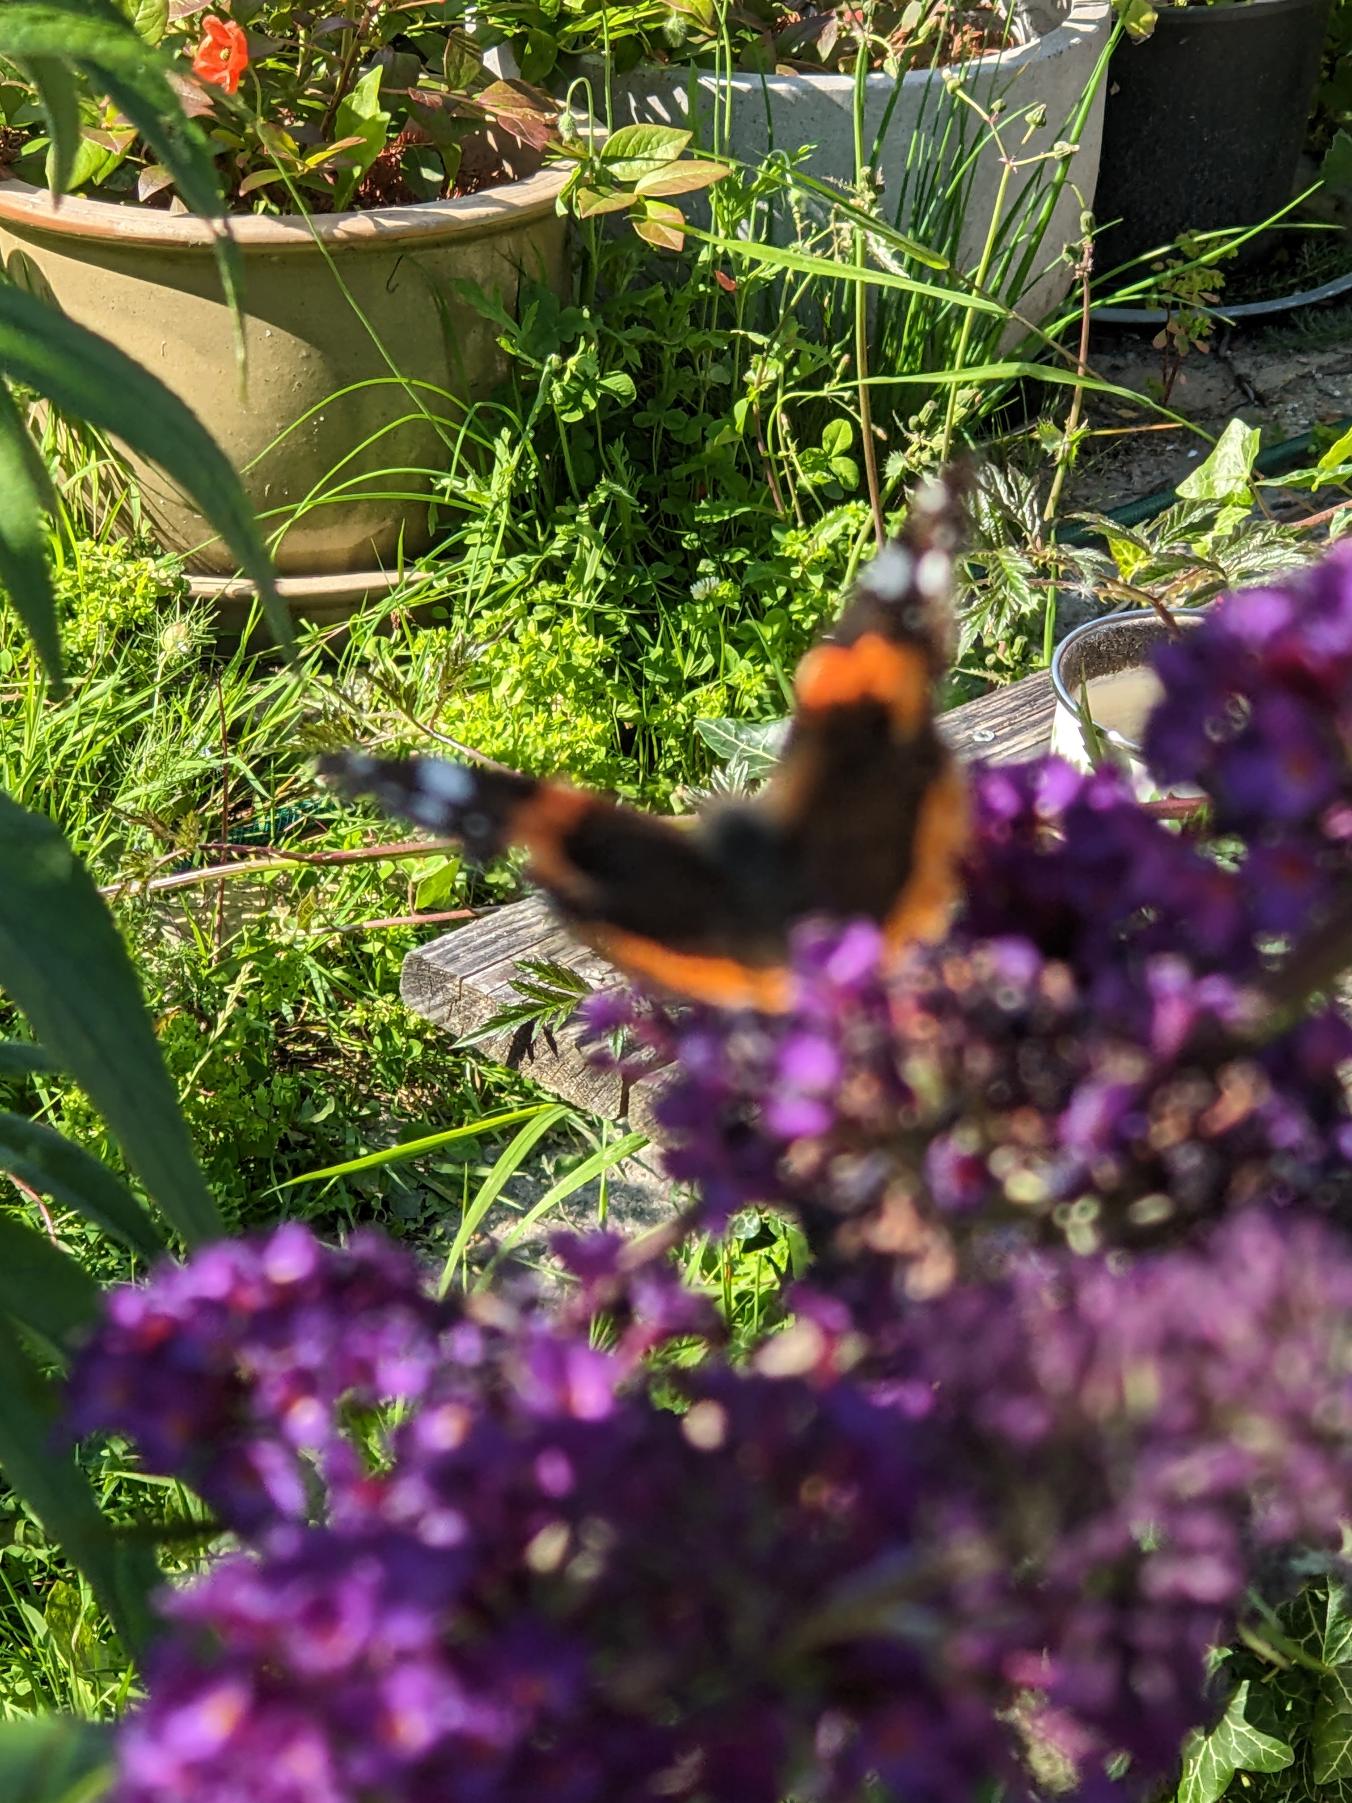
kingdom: Animalia
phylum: Arthropoda
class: Insecta
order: Lepidoptera
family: Nymphalidae
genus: Vanessa
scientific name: Vanessa atalanta
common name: Admiral
